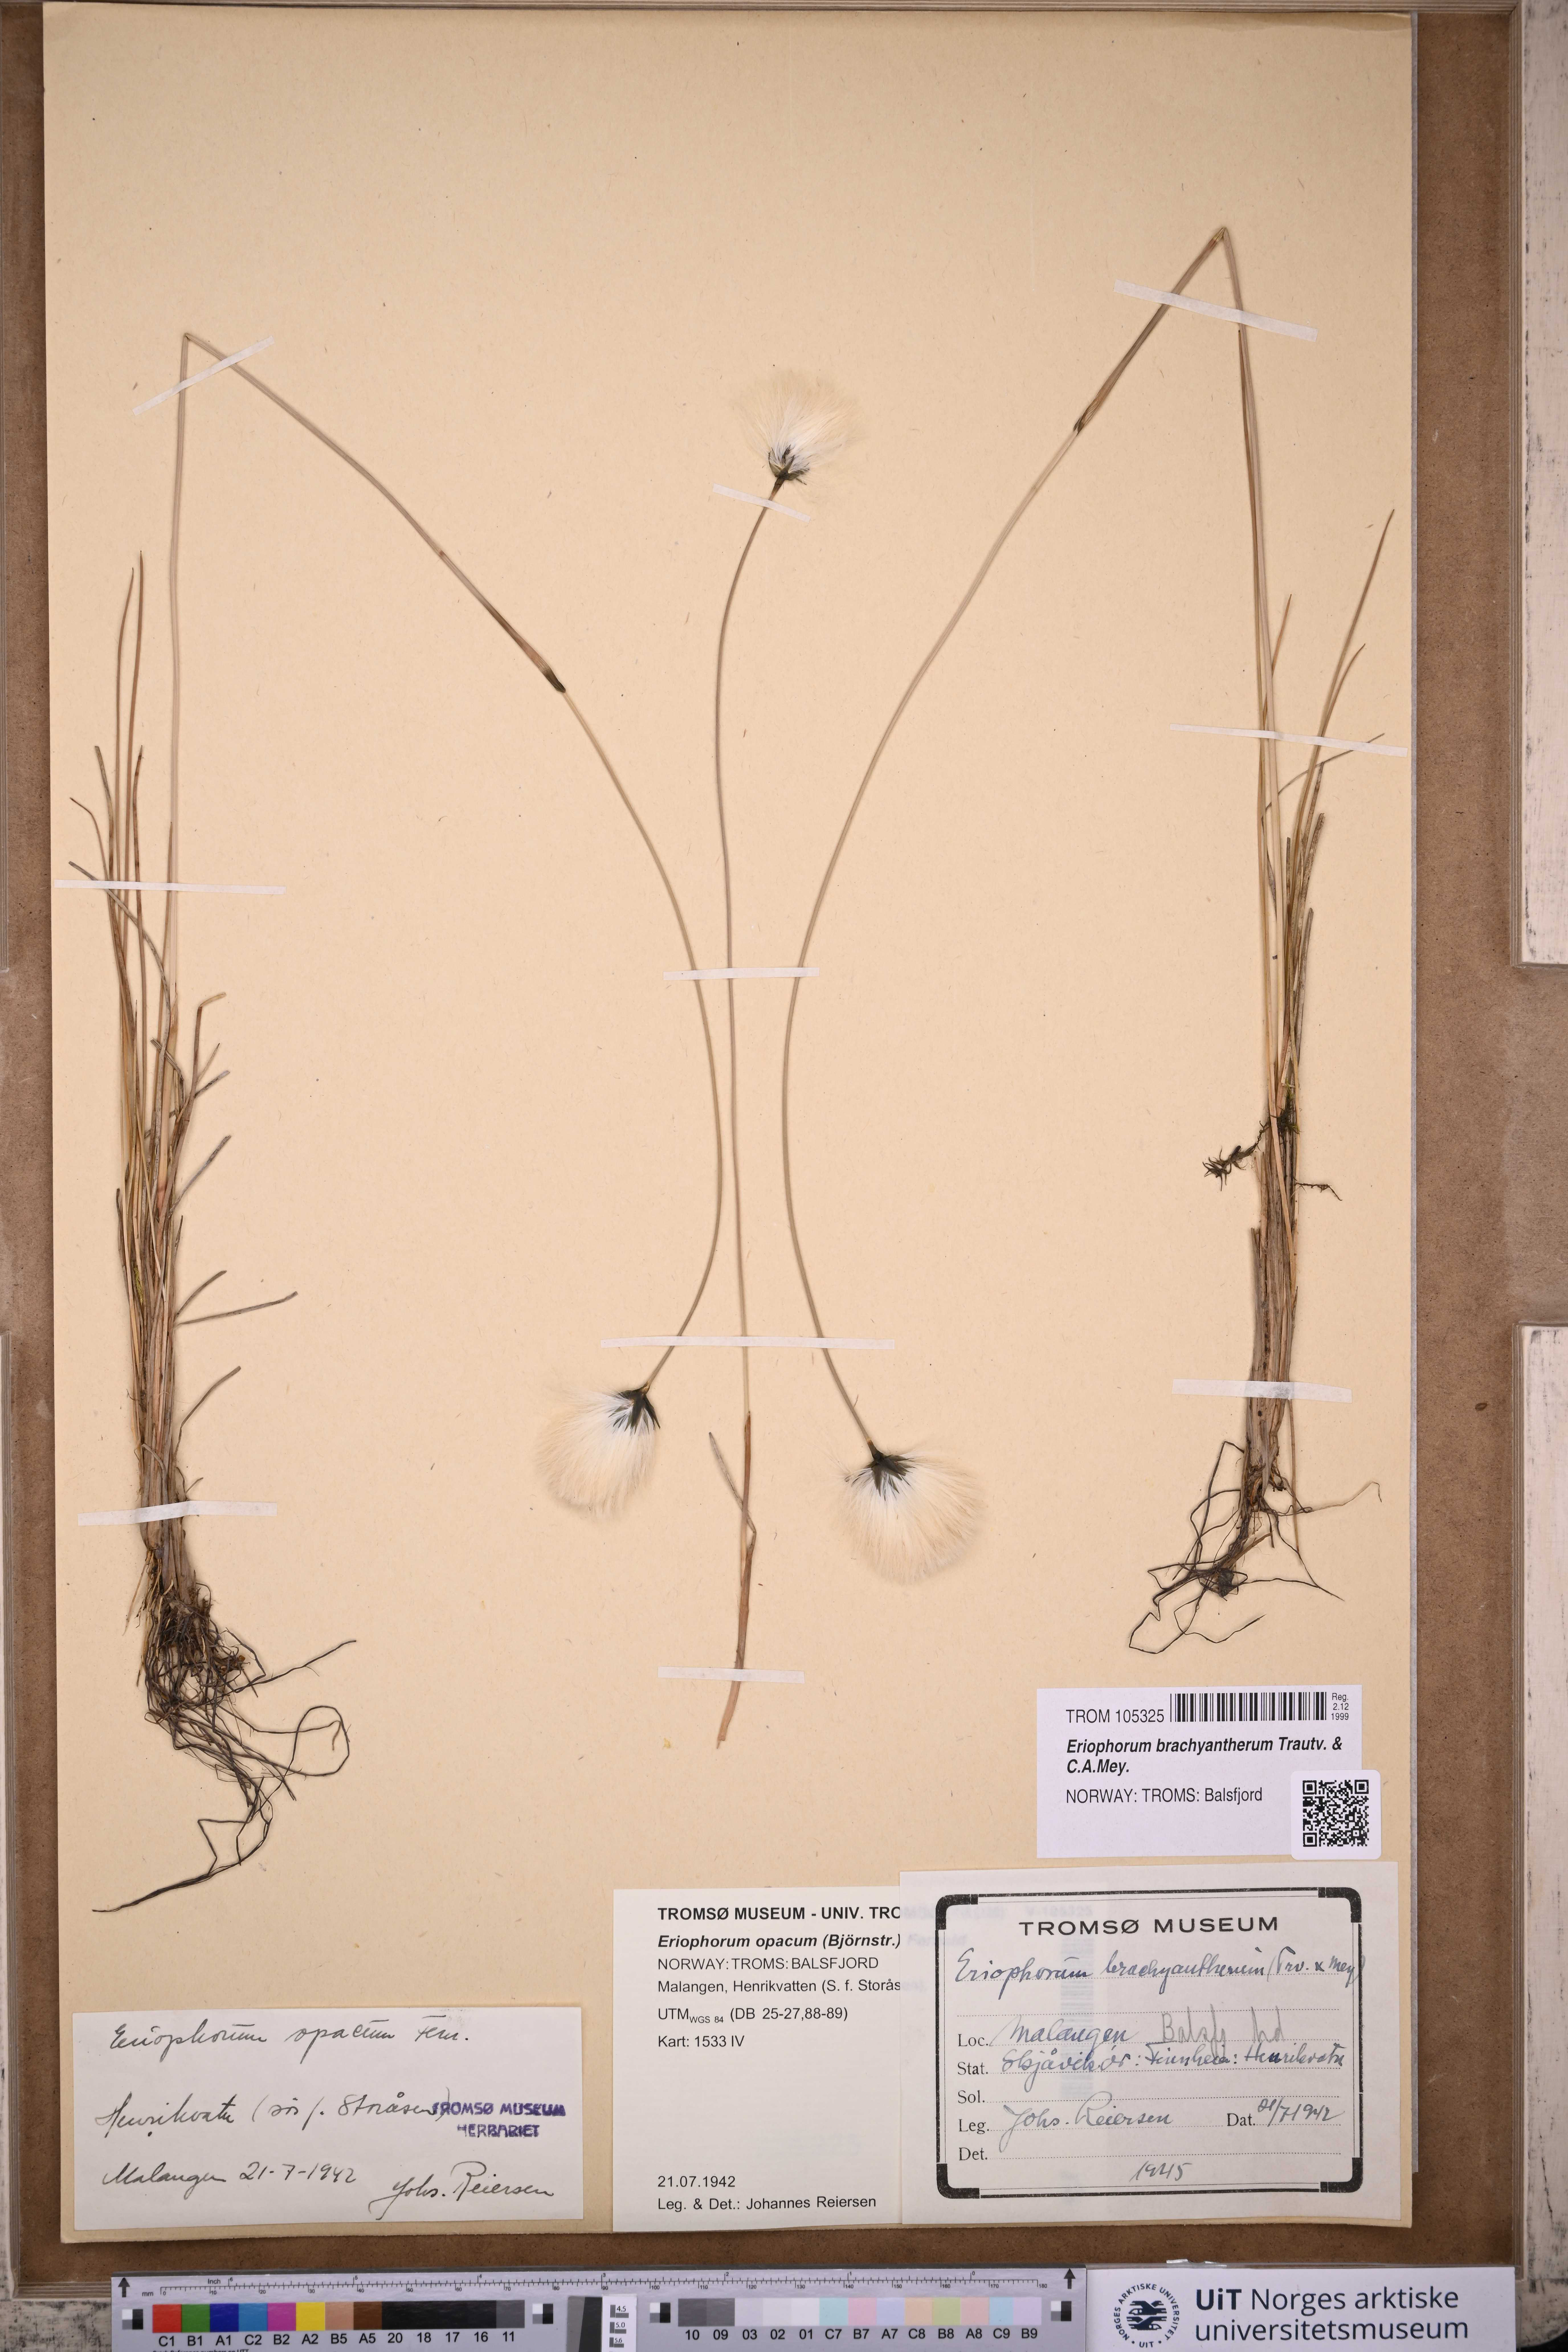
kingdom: Plantae
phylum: Tracheophyta
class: Liliopsida
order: Poales
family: Cyperaceae
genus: Eriophorum
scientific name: Eriophorum brachyantherum
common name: Closed-sheathed cottongrass
